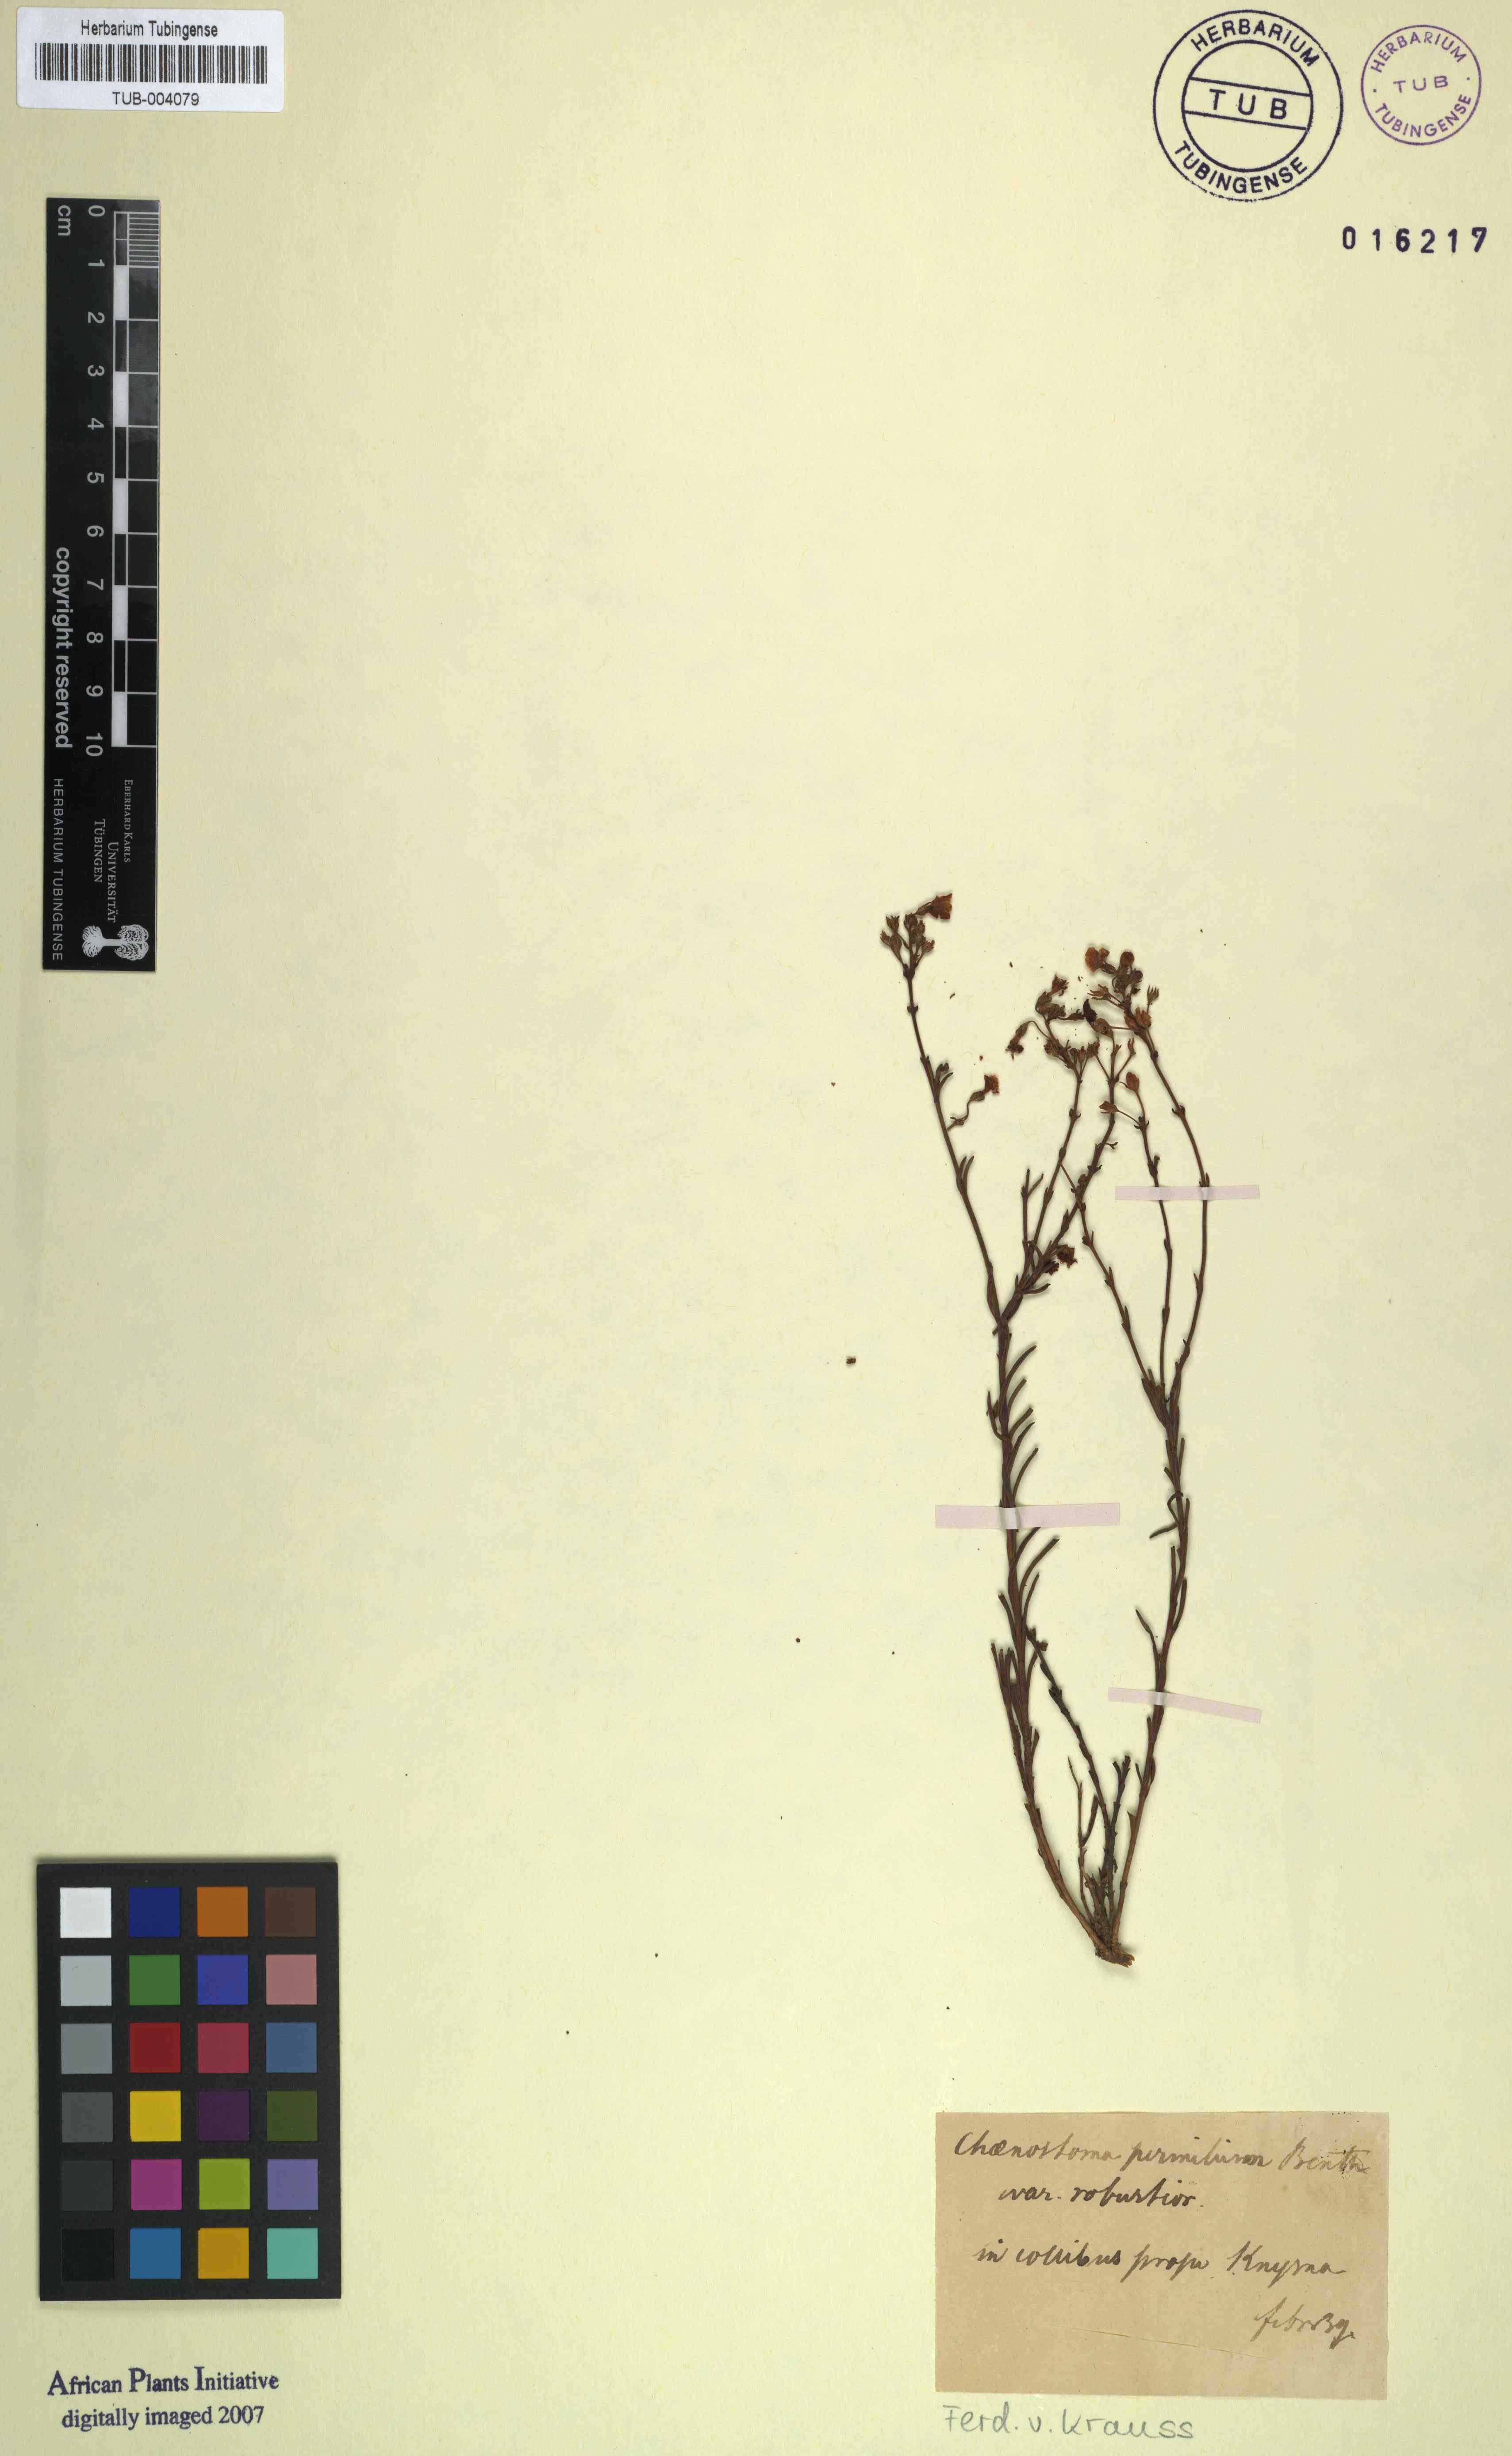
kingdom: Plantae
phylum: Tracheophyta
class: Magnoliopsida
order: Lamiales
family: Scrophulariaceae
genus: Chaenostoma
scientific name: Chaenostoma halimifolium
